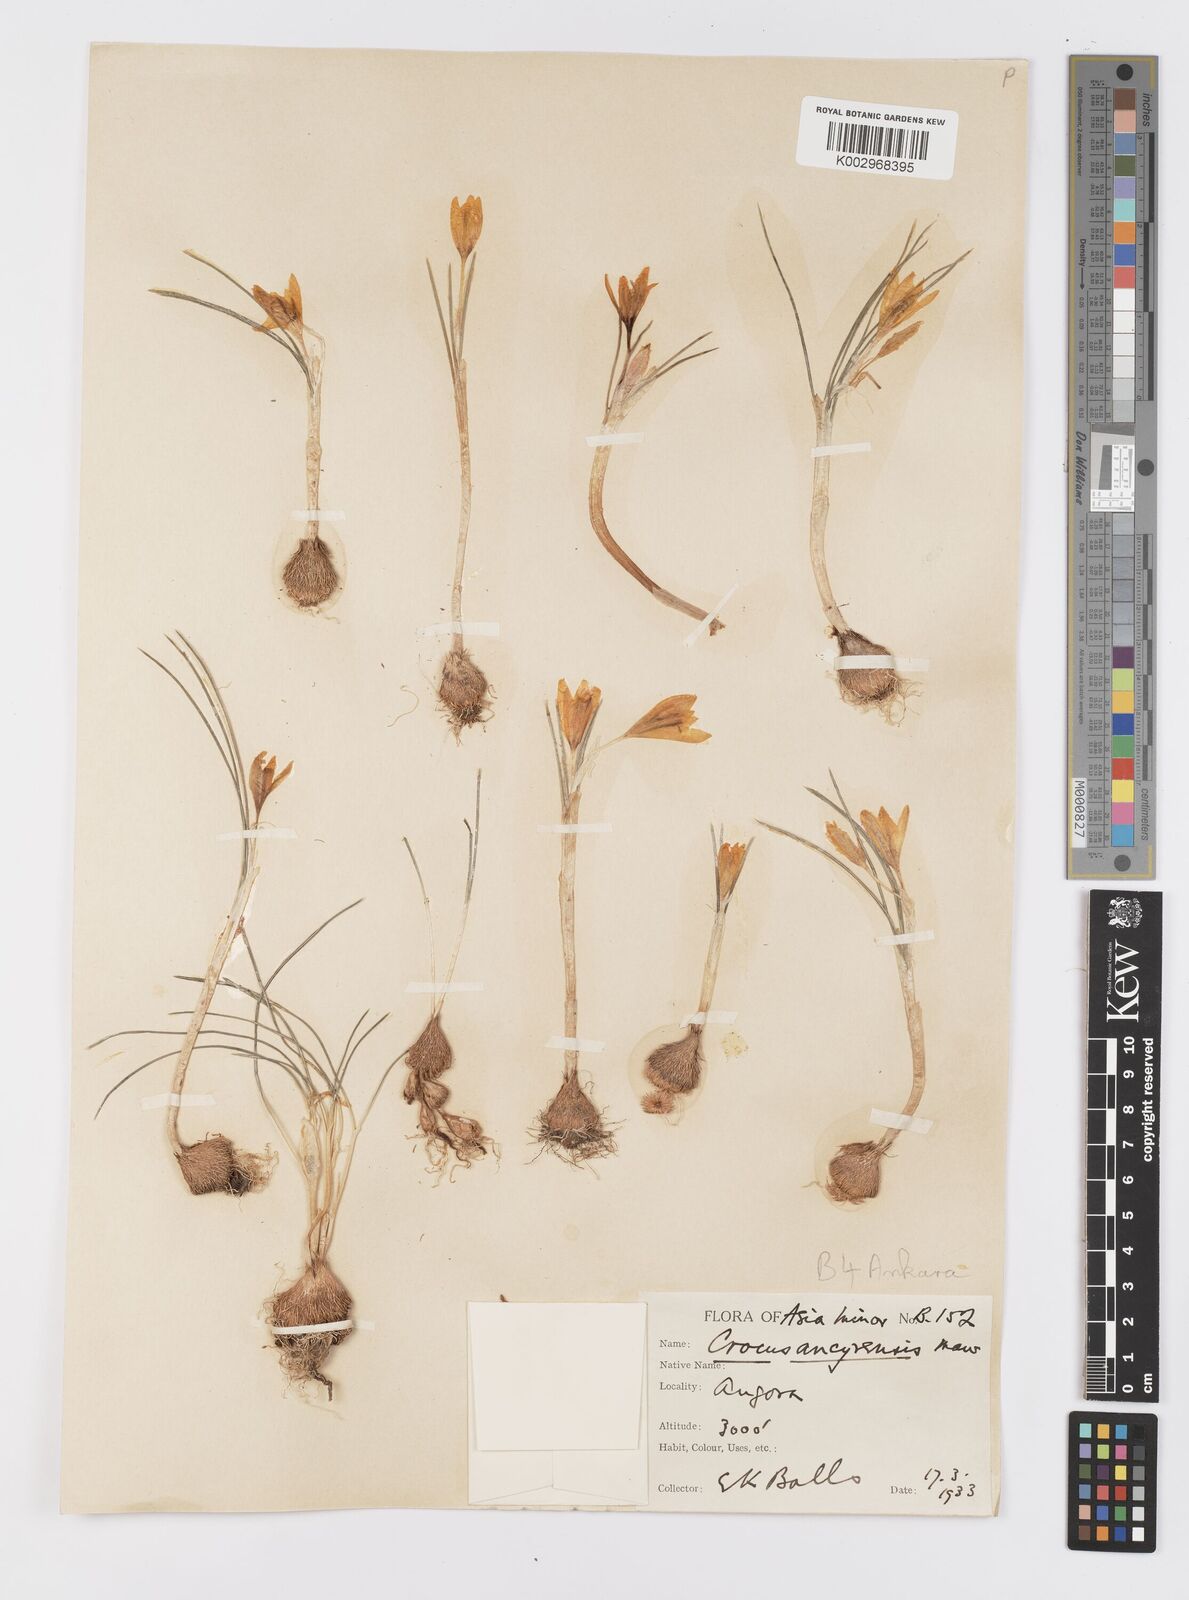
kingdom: Plantae
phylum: Tracheophyta
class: Liliopsida
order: Asparagales
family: Iridaceae
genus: Crocus
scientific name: Crocus ancyrensis
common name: Ankara crocus
